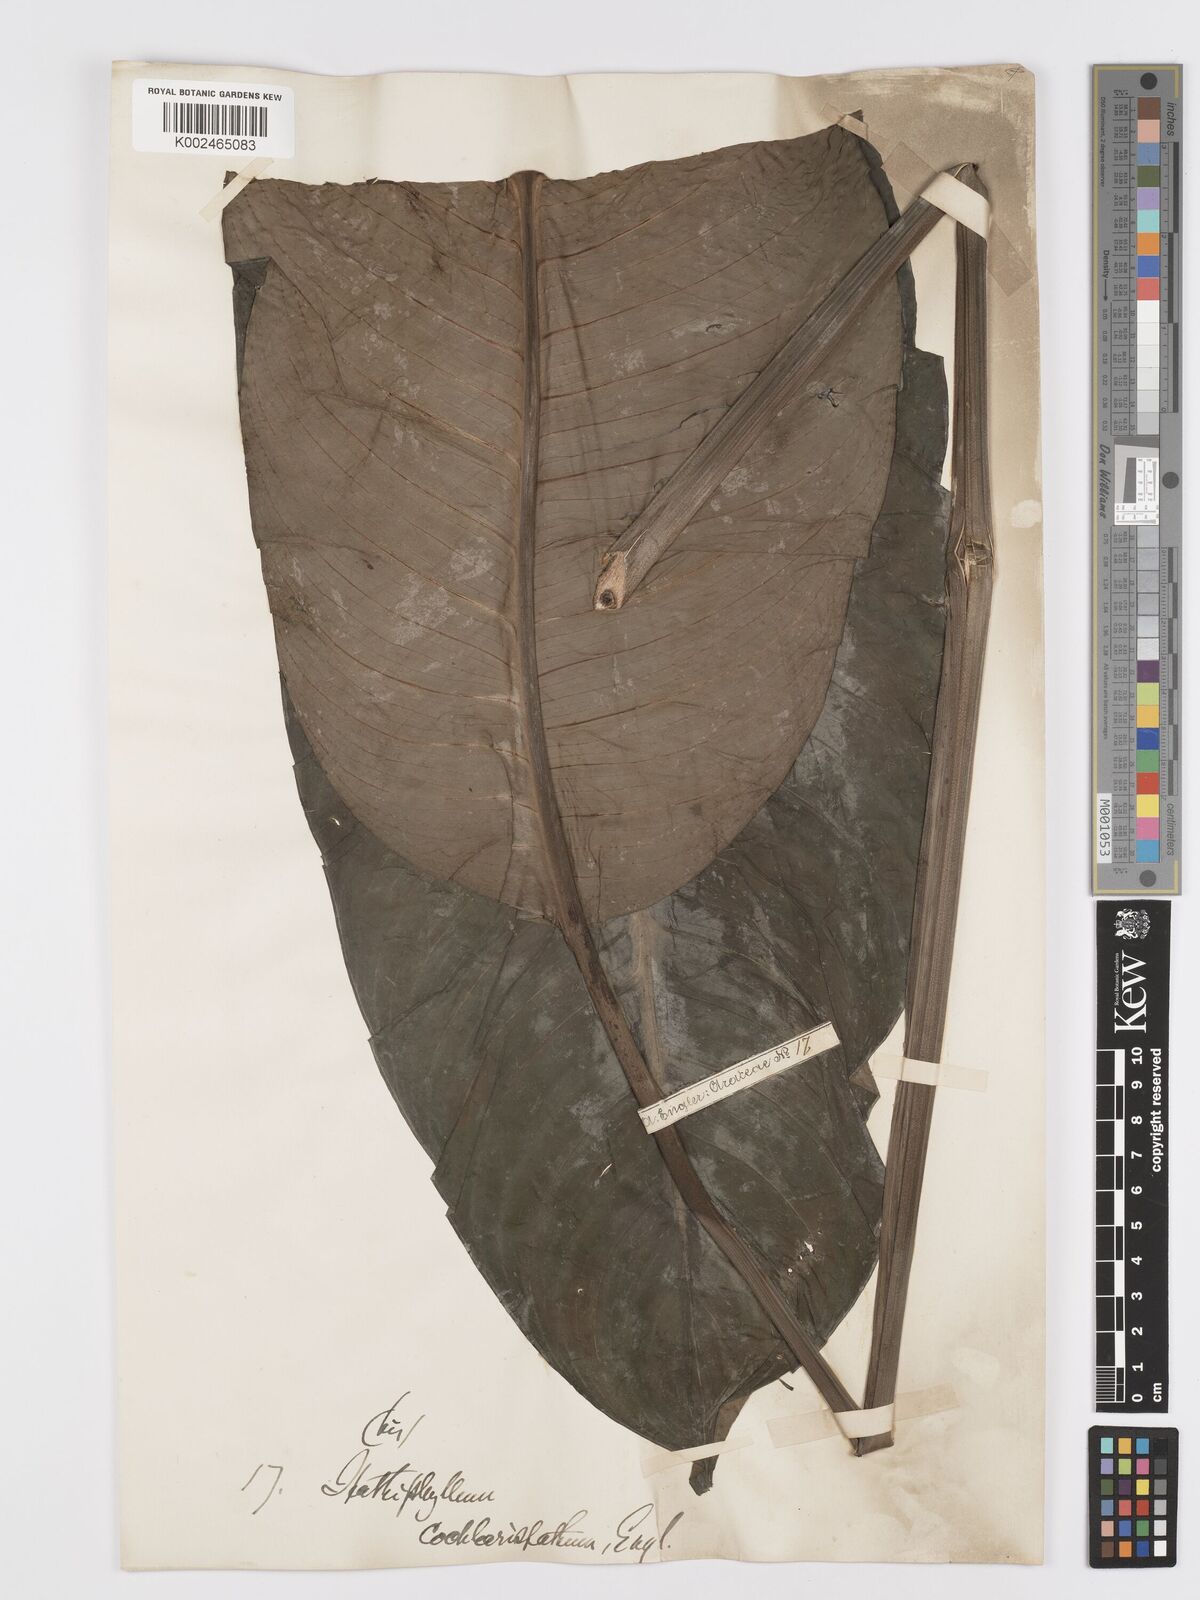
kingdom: Plantae
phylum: Tracheophyta
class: Liliopsida
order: Alismatales
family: Araceae
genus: Spathiphyllum
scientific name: Spathiphyllum cochlearispathum
